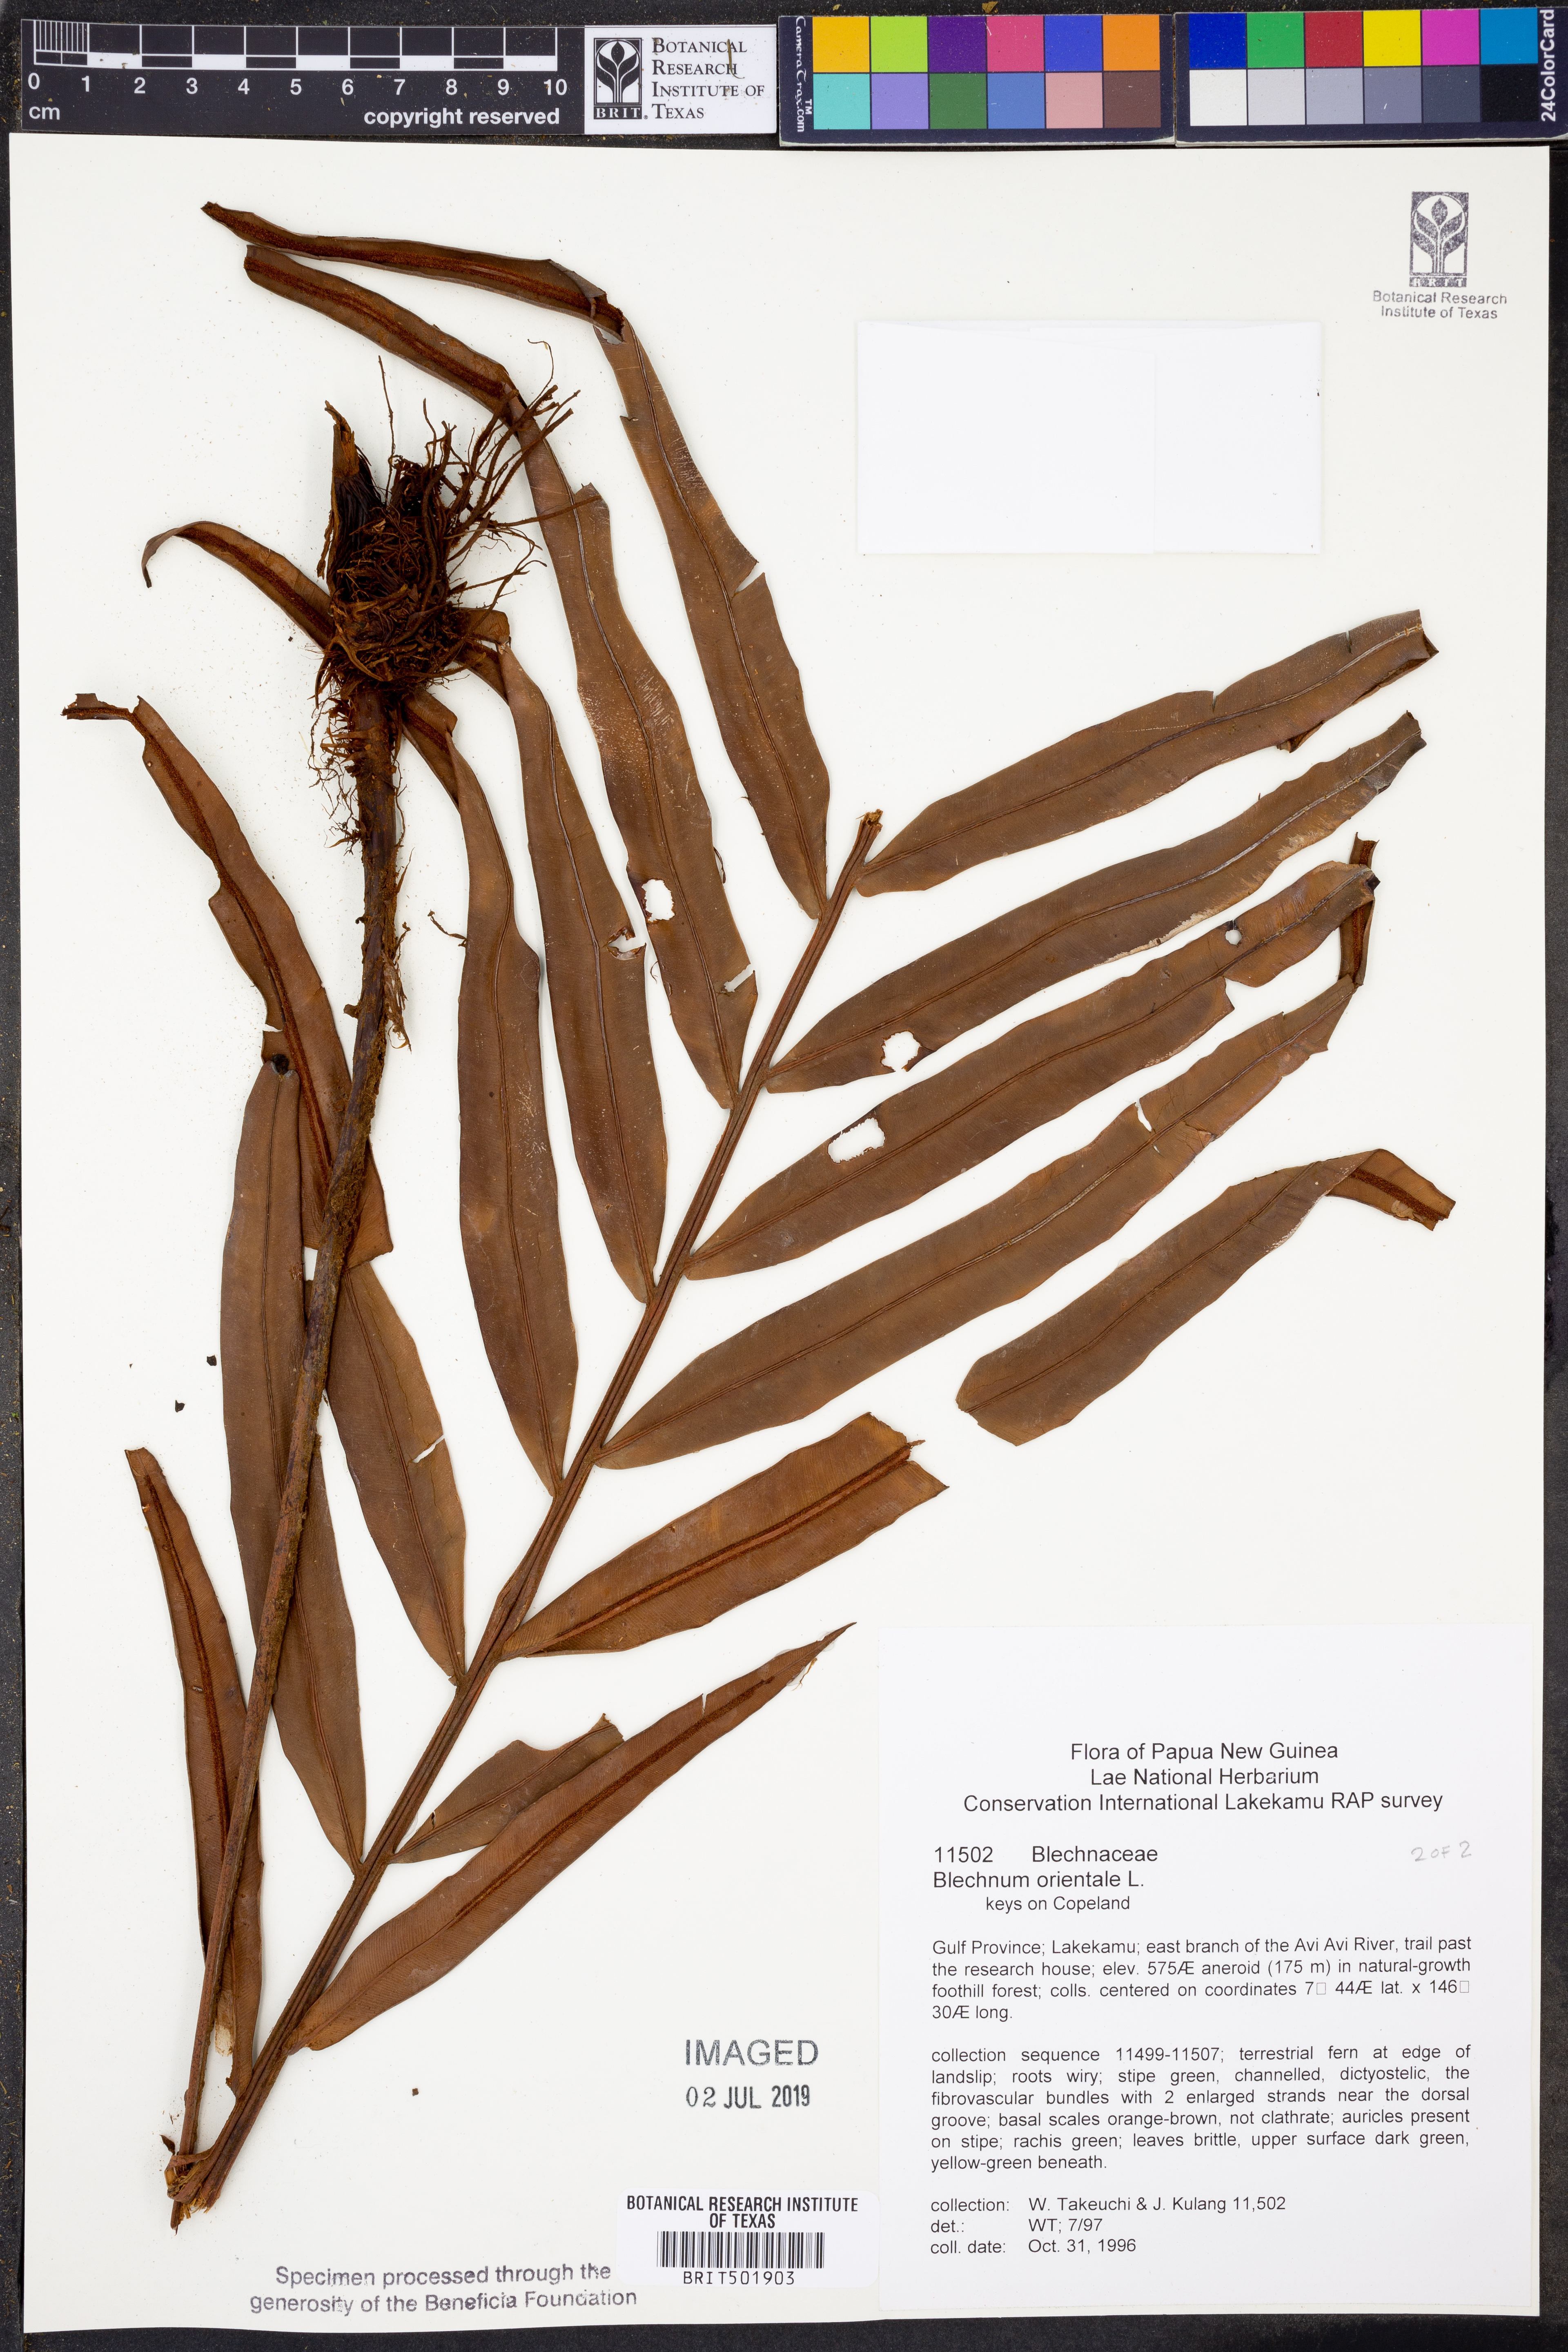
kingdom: Plantae
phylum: Tracheophyta
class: Polypodiopsida
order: Polypodiales
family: Blechnaceae
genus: Blechnopsis
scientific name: Blechnopsis orientalis
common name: Oriental blechnum
